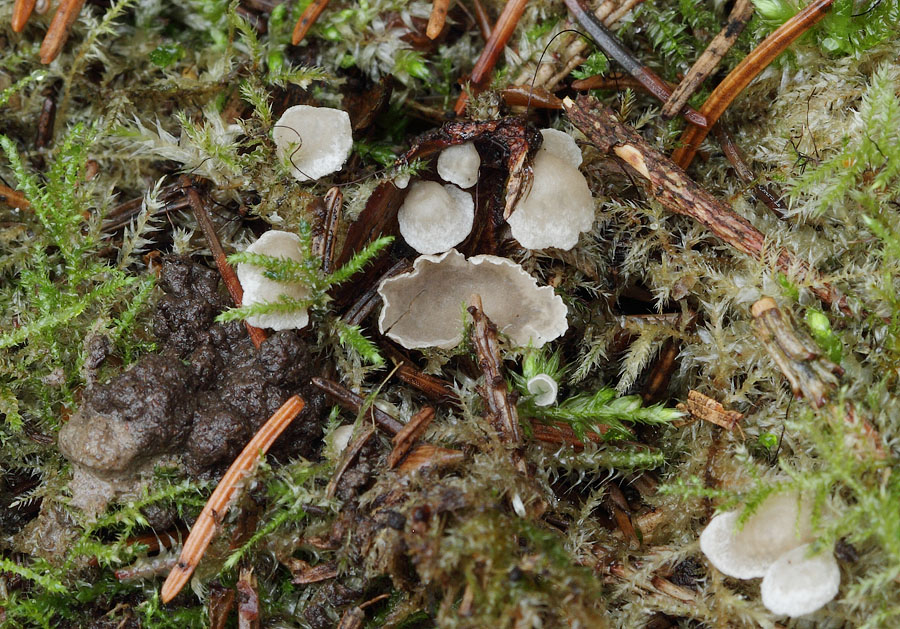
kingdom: Fungi
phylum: Basidiomycota
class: Agaricomycetes
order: Agaricales
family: Hygrophoraceae
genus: Arrhenia
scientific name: Arrhenia retiruga
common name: lille fontænehat
